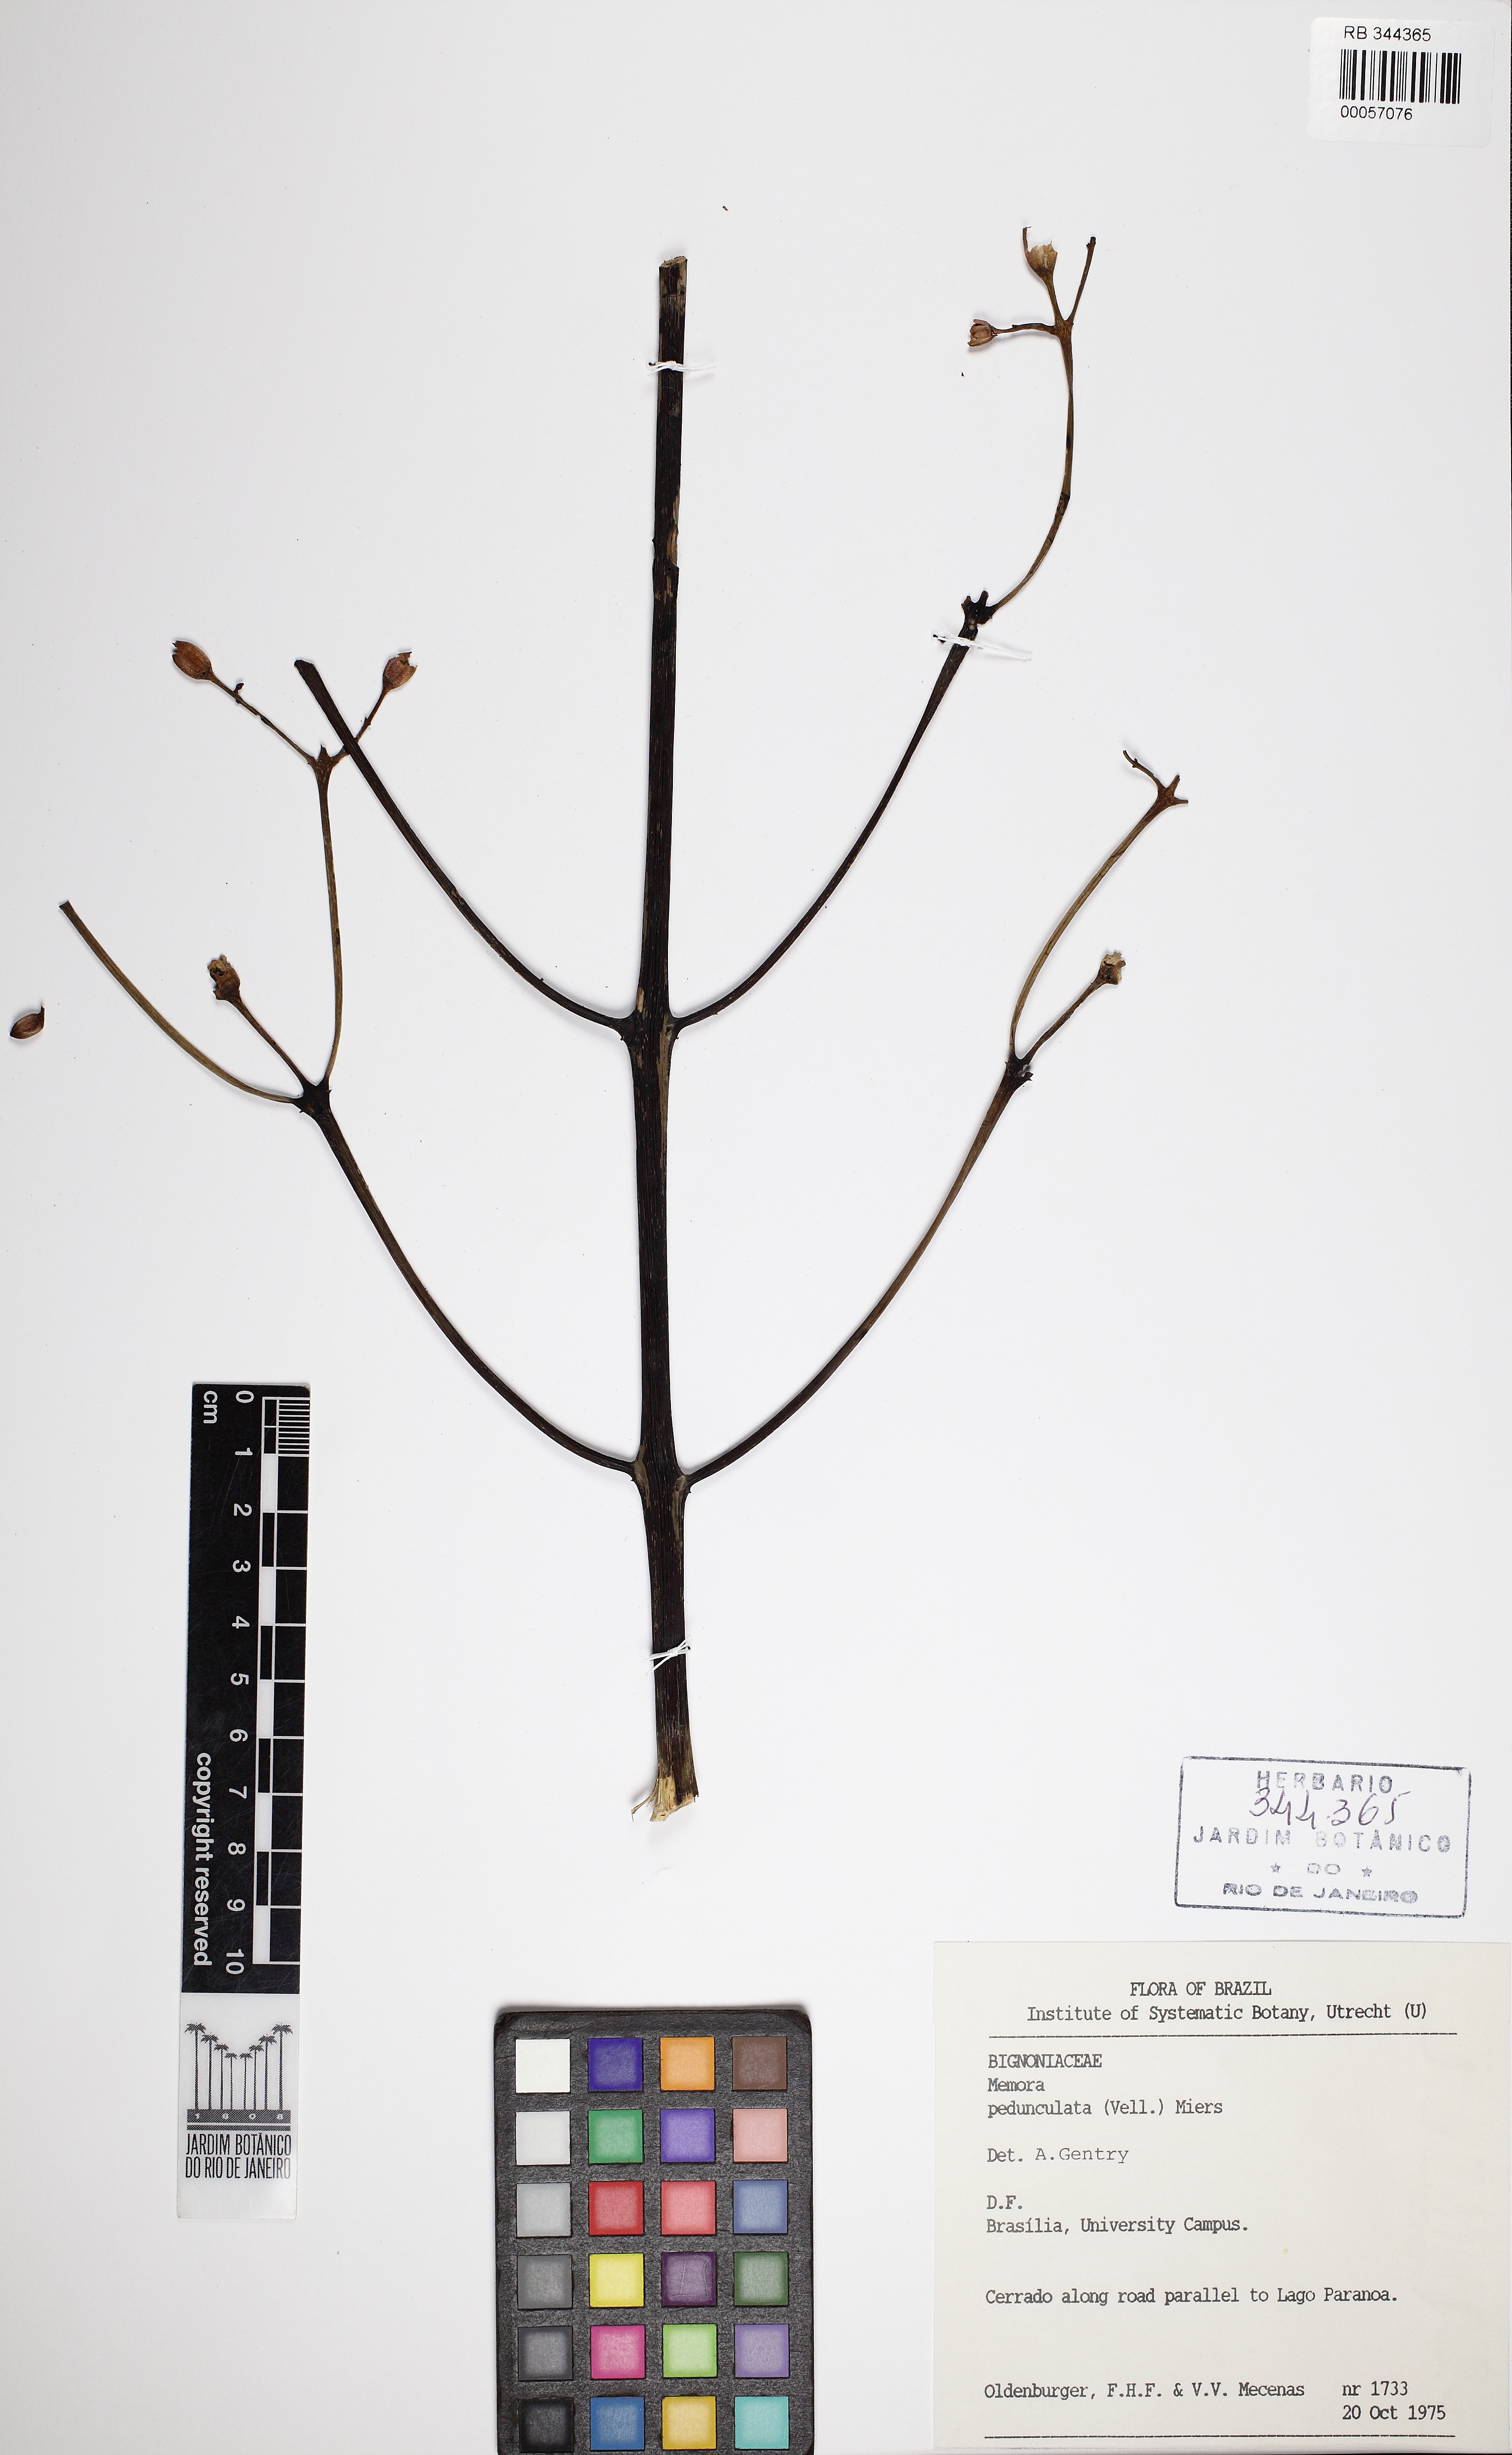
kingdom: Plantae
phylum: Tracheophyta
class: Magnoliopsida
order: Lamiales
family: Bignoniaceae
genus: Adenocalymma
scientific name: Adenocalymma pedunculatum
